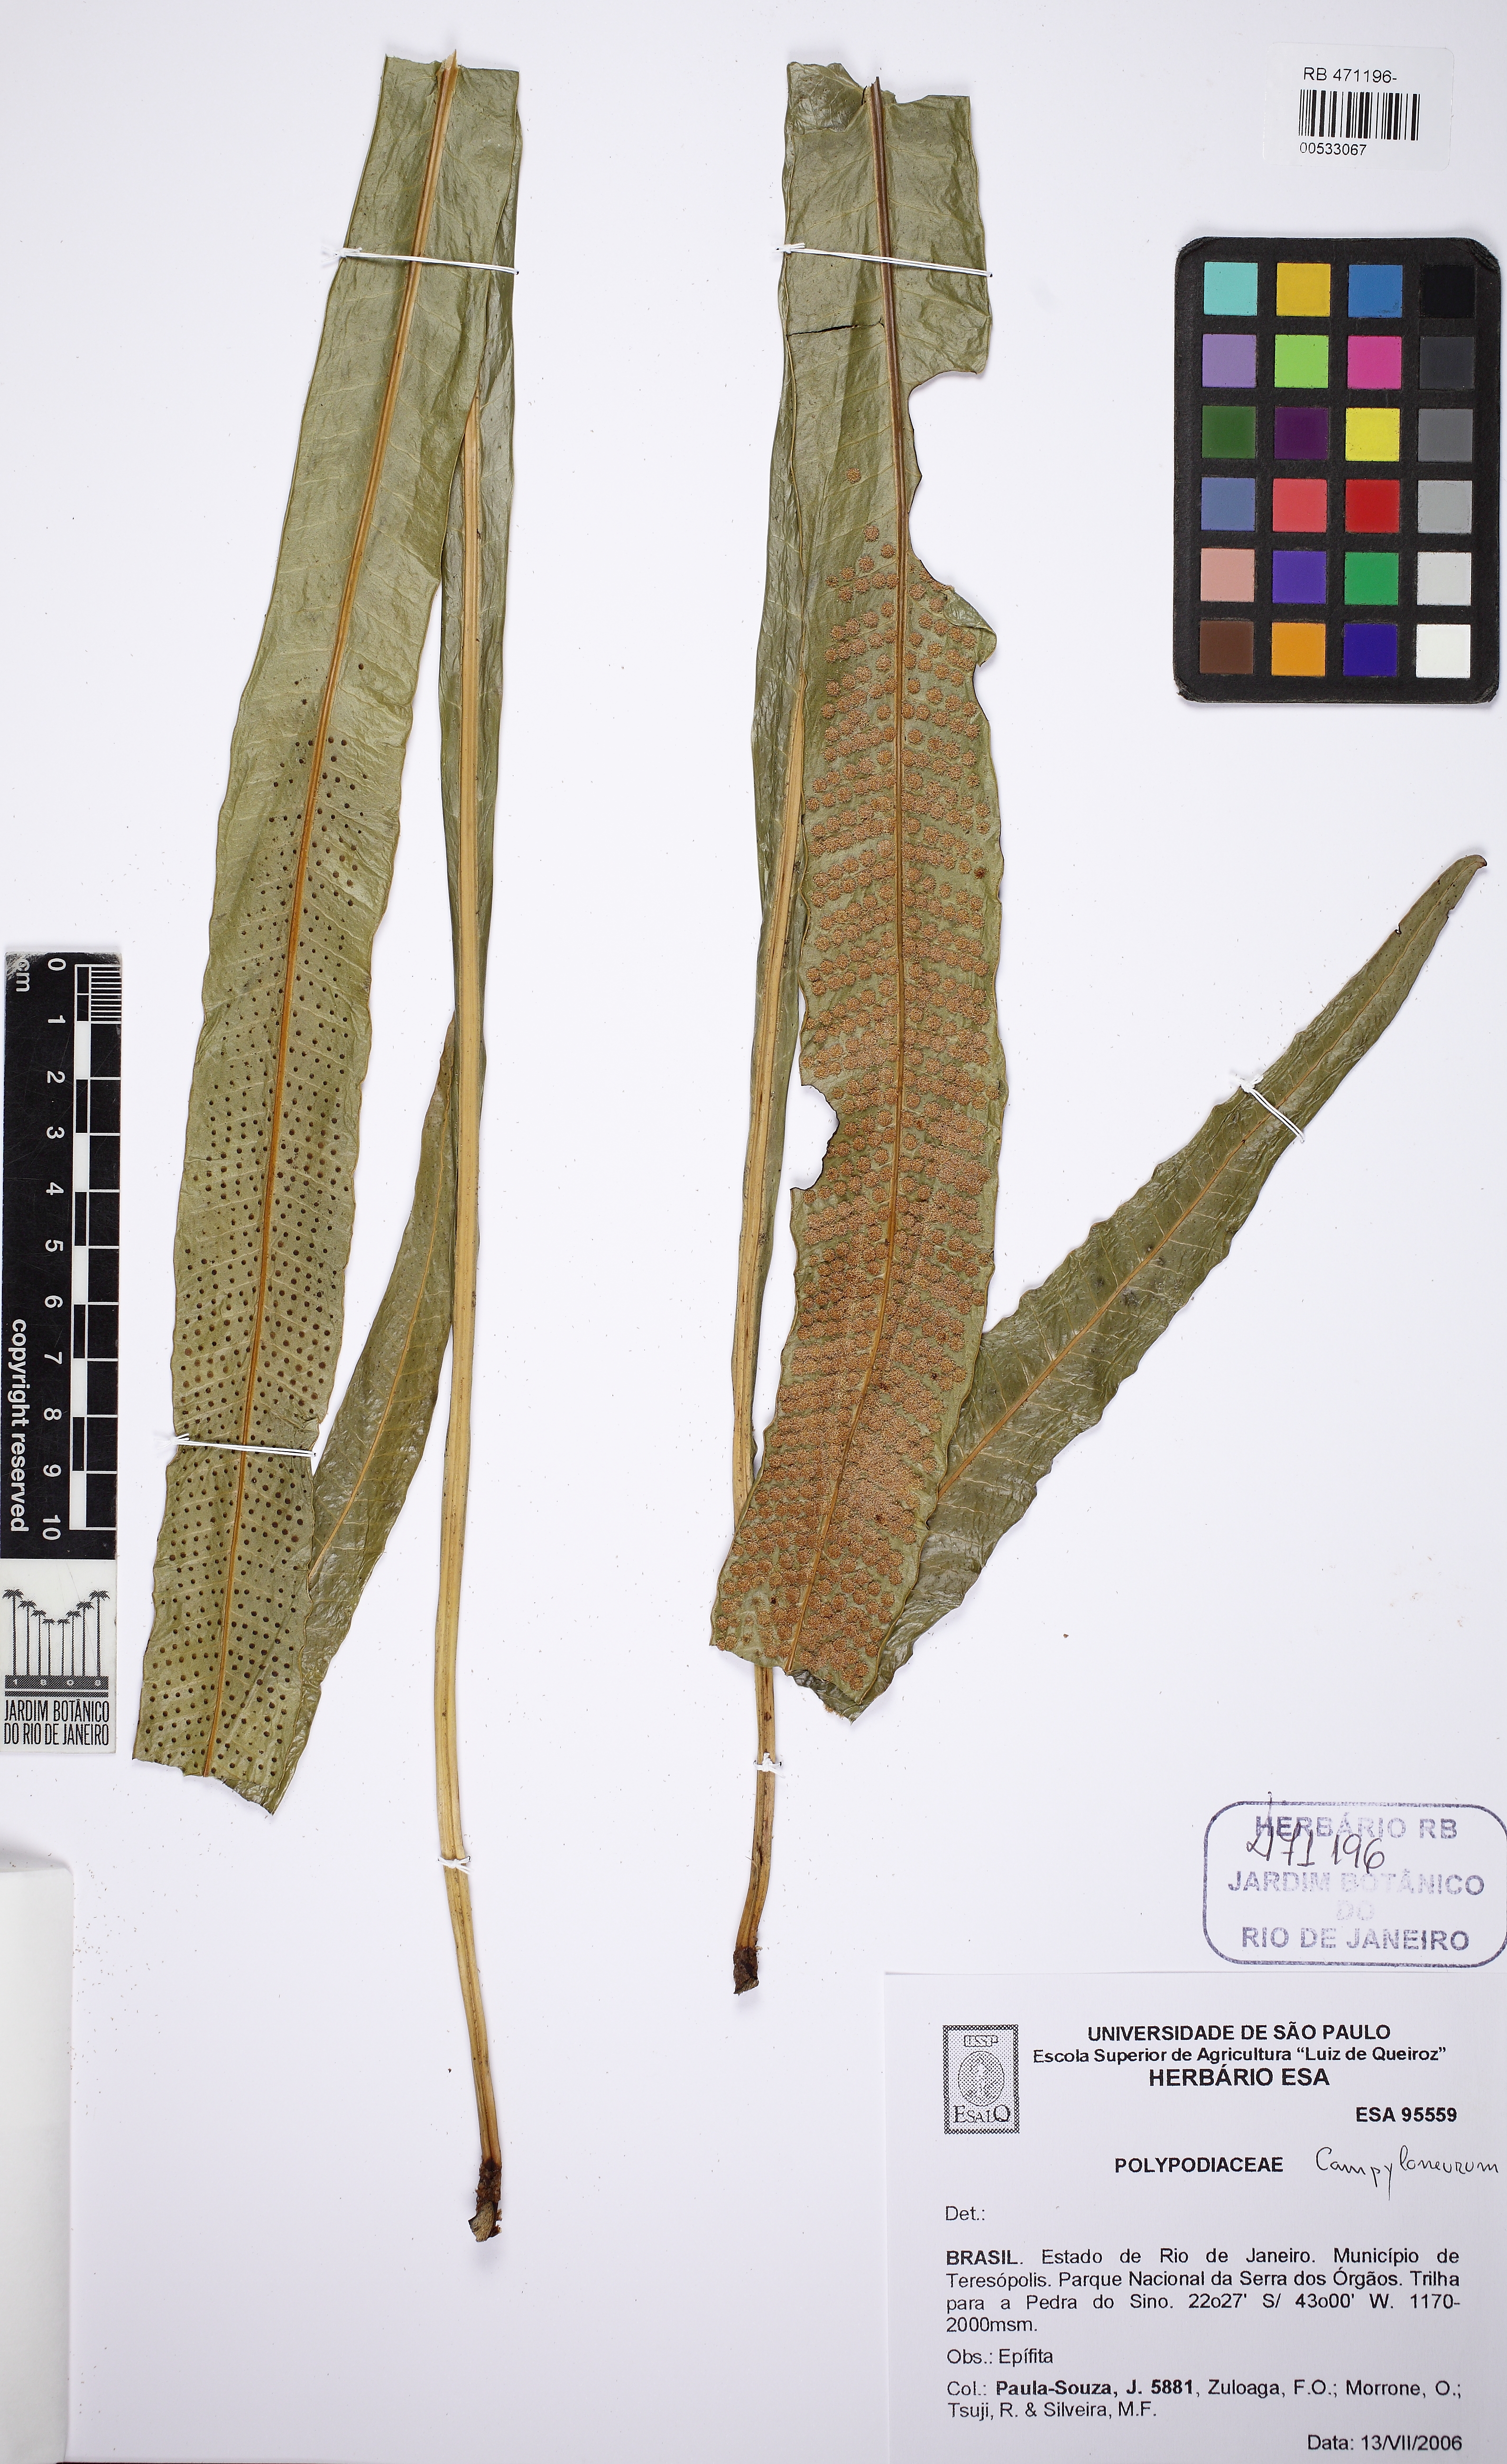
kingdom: Plantae
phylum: Tracheophyta
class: Polypodiopsida
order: Polypodiales
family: Polypodiaceae
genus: Campyloneurum
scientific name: Campyloneurum fallax
